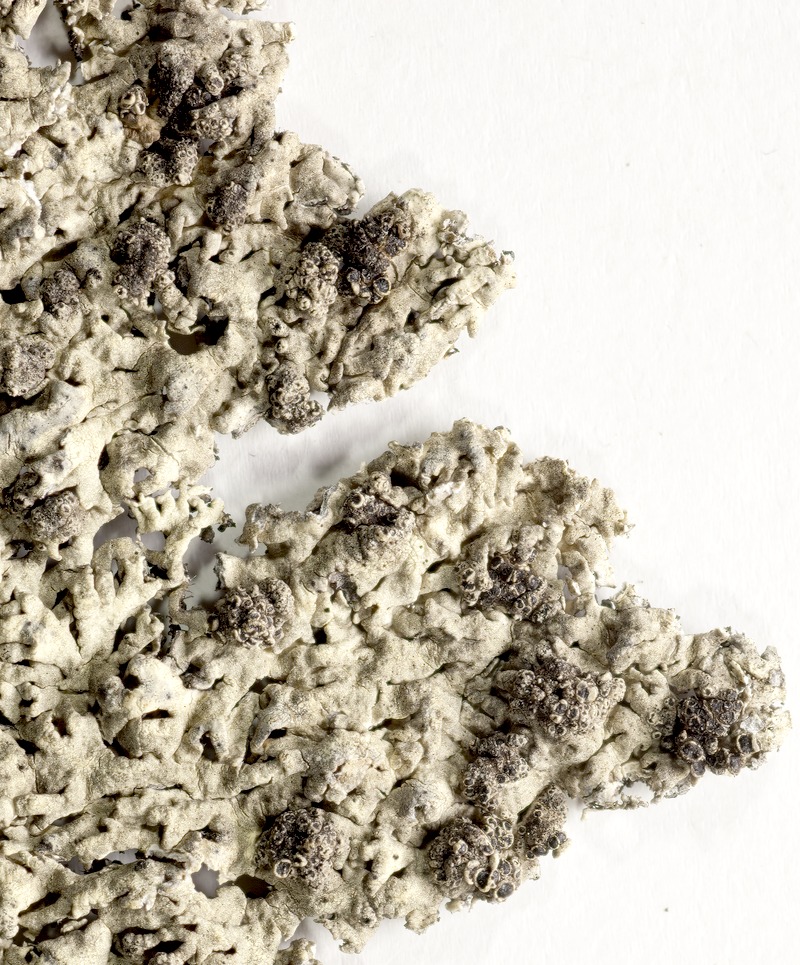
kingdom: Fungi
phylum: Ascomycota
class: Lecanoromycetes
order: Lecanorales
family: Parmeliaceae
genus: Arctoparmelia
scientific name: Arctoparmelia centrifuga
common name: Concentric ring lichen
